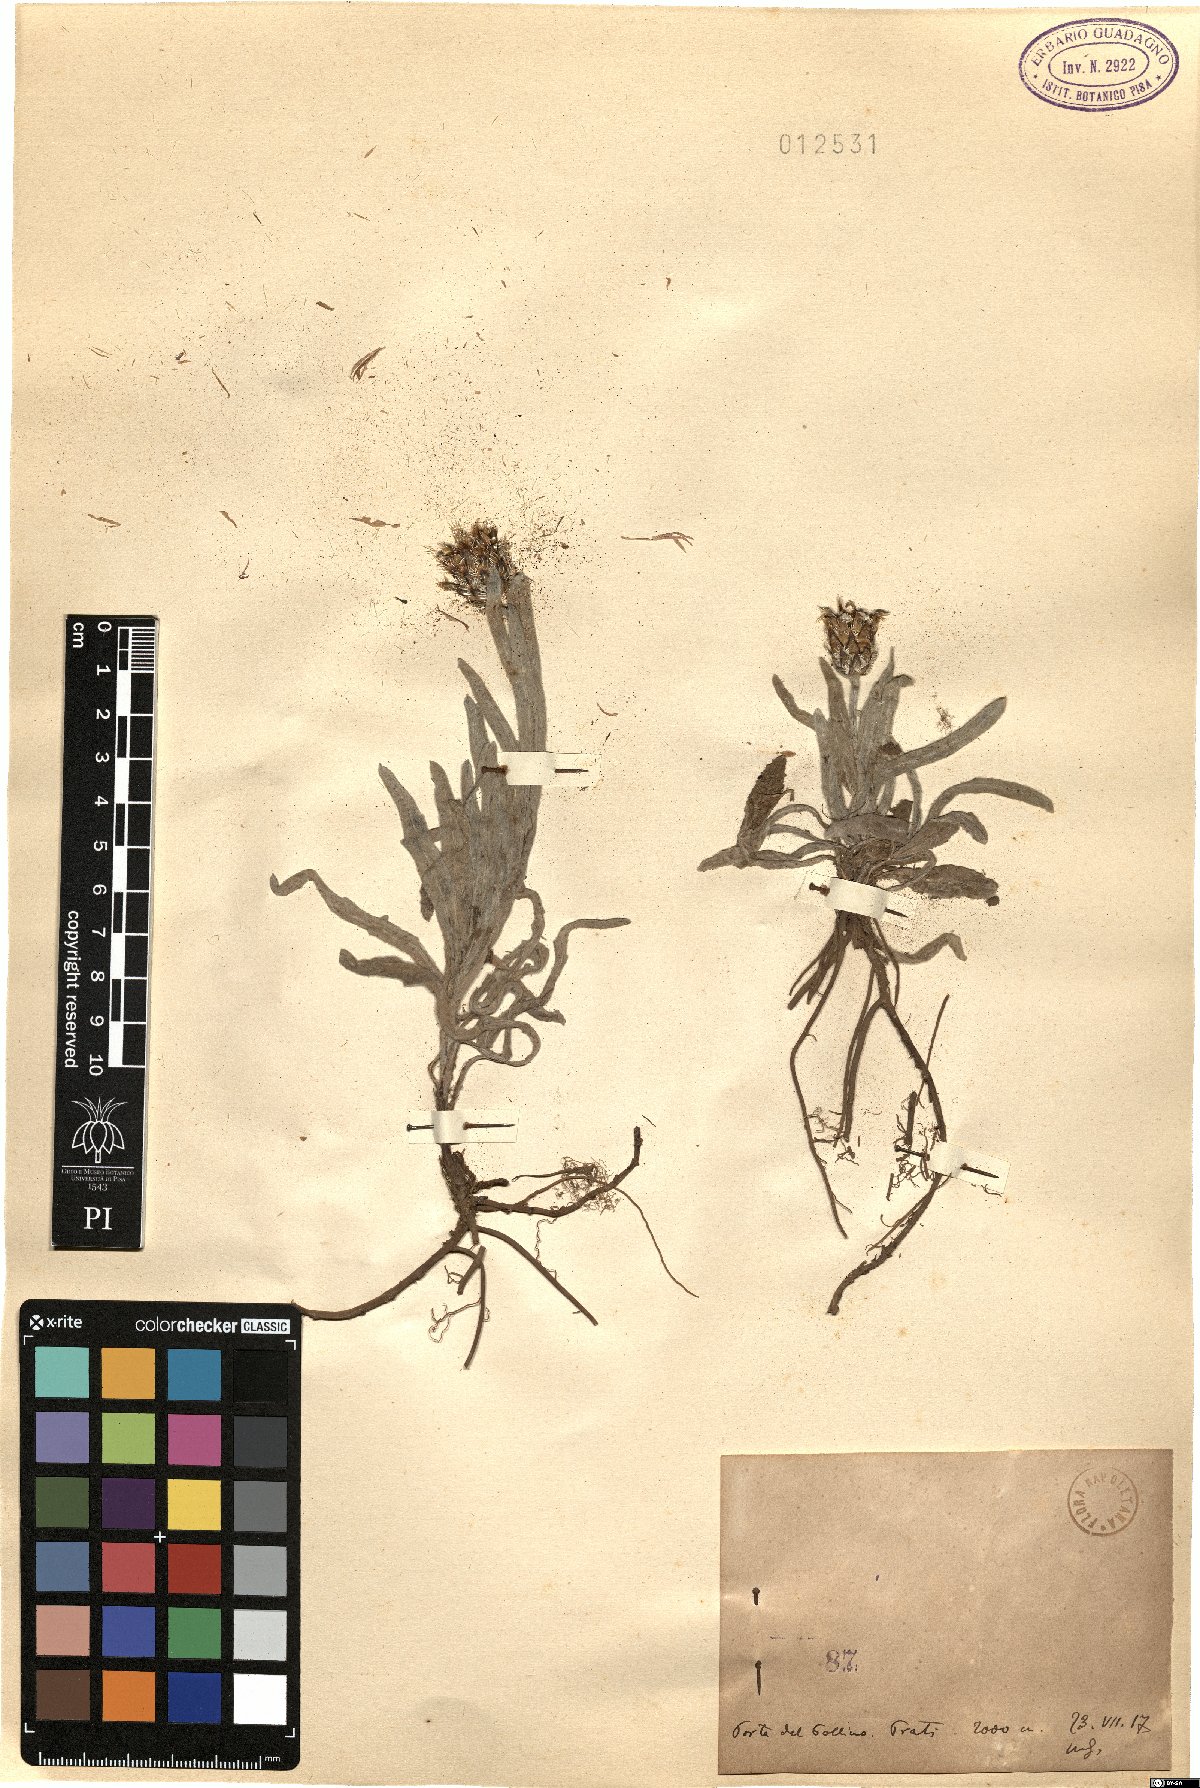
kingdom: Plantae
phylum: Tracheophyta
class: Magnoliopsida
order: Asterales
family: Asteraceae
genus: Centaurea
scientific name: Centaurea
